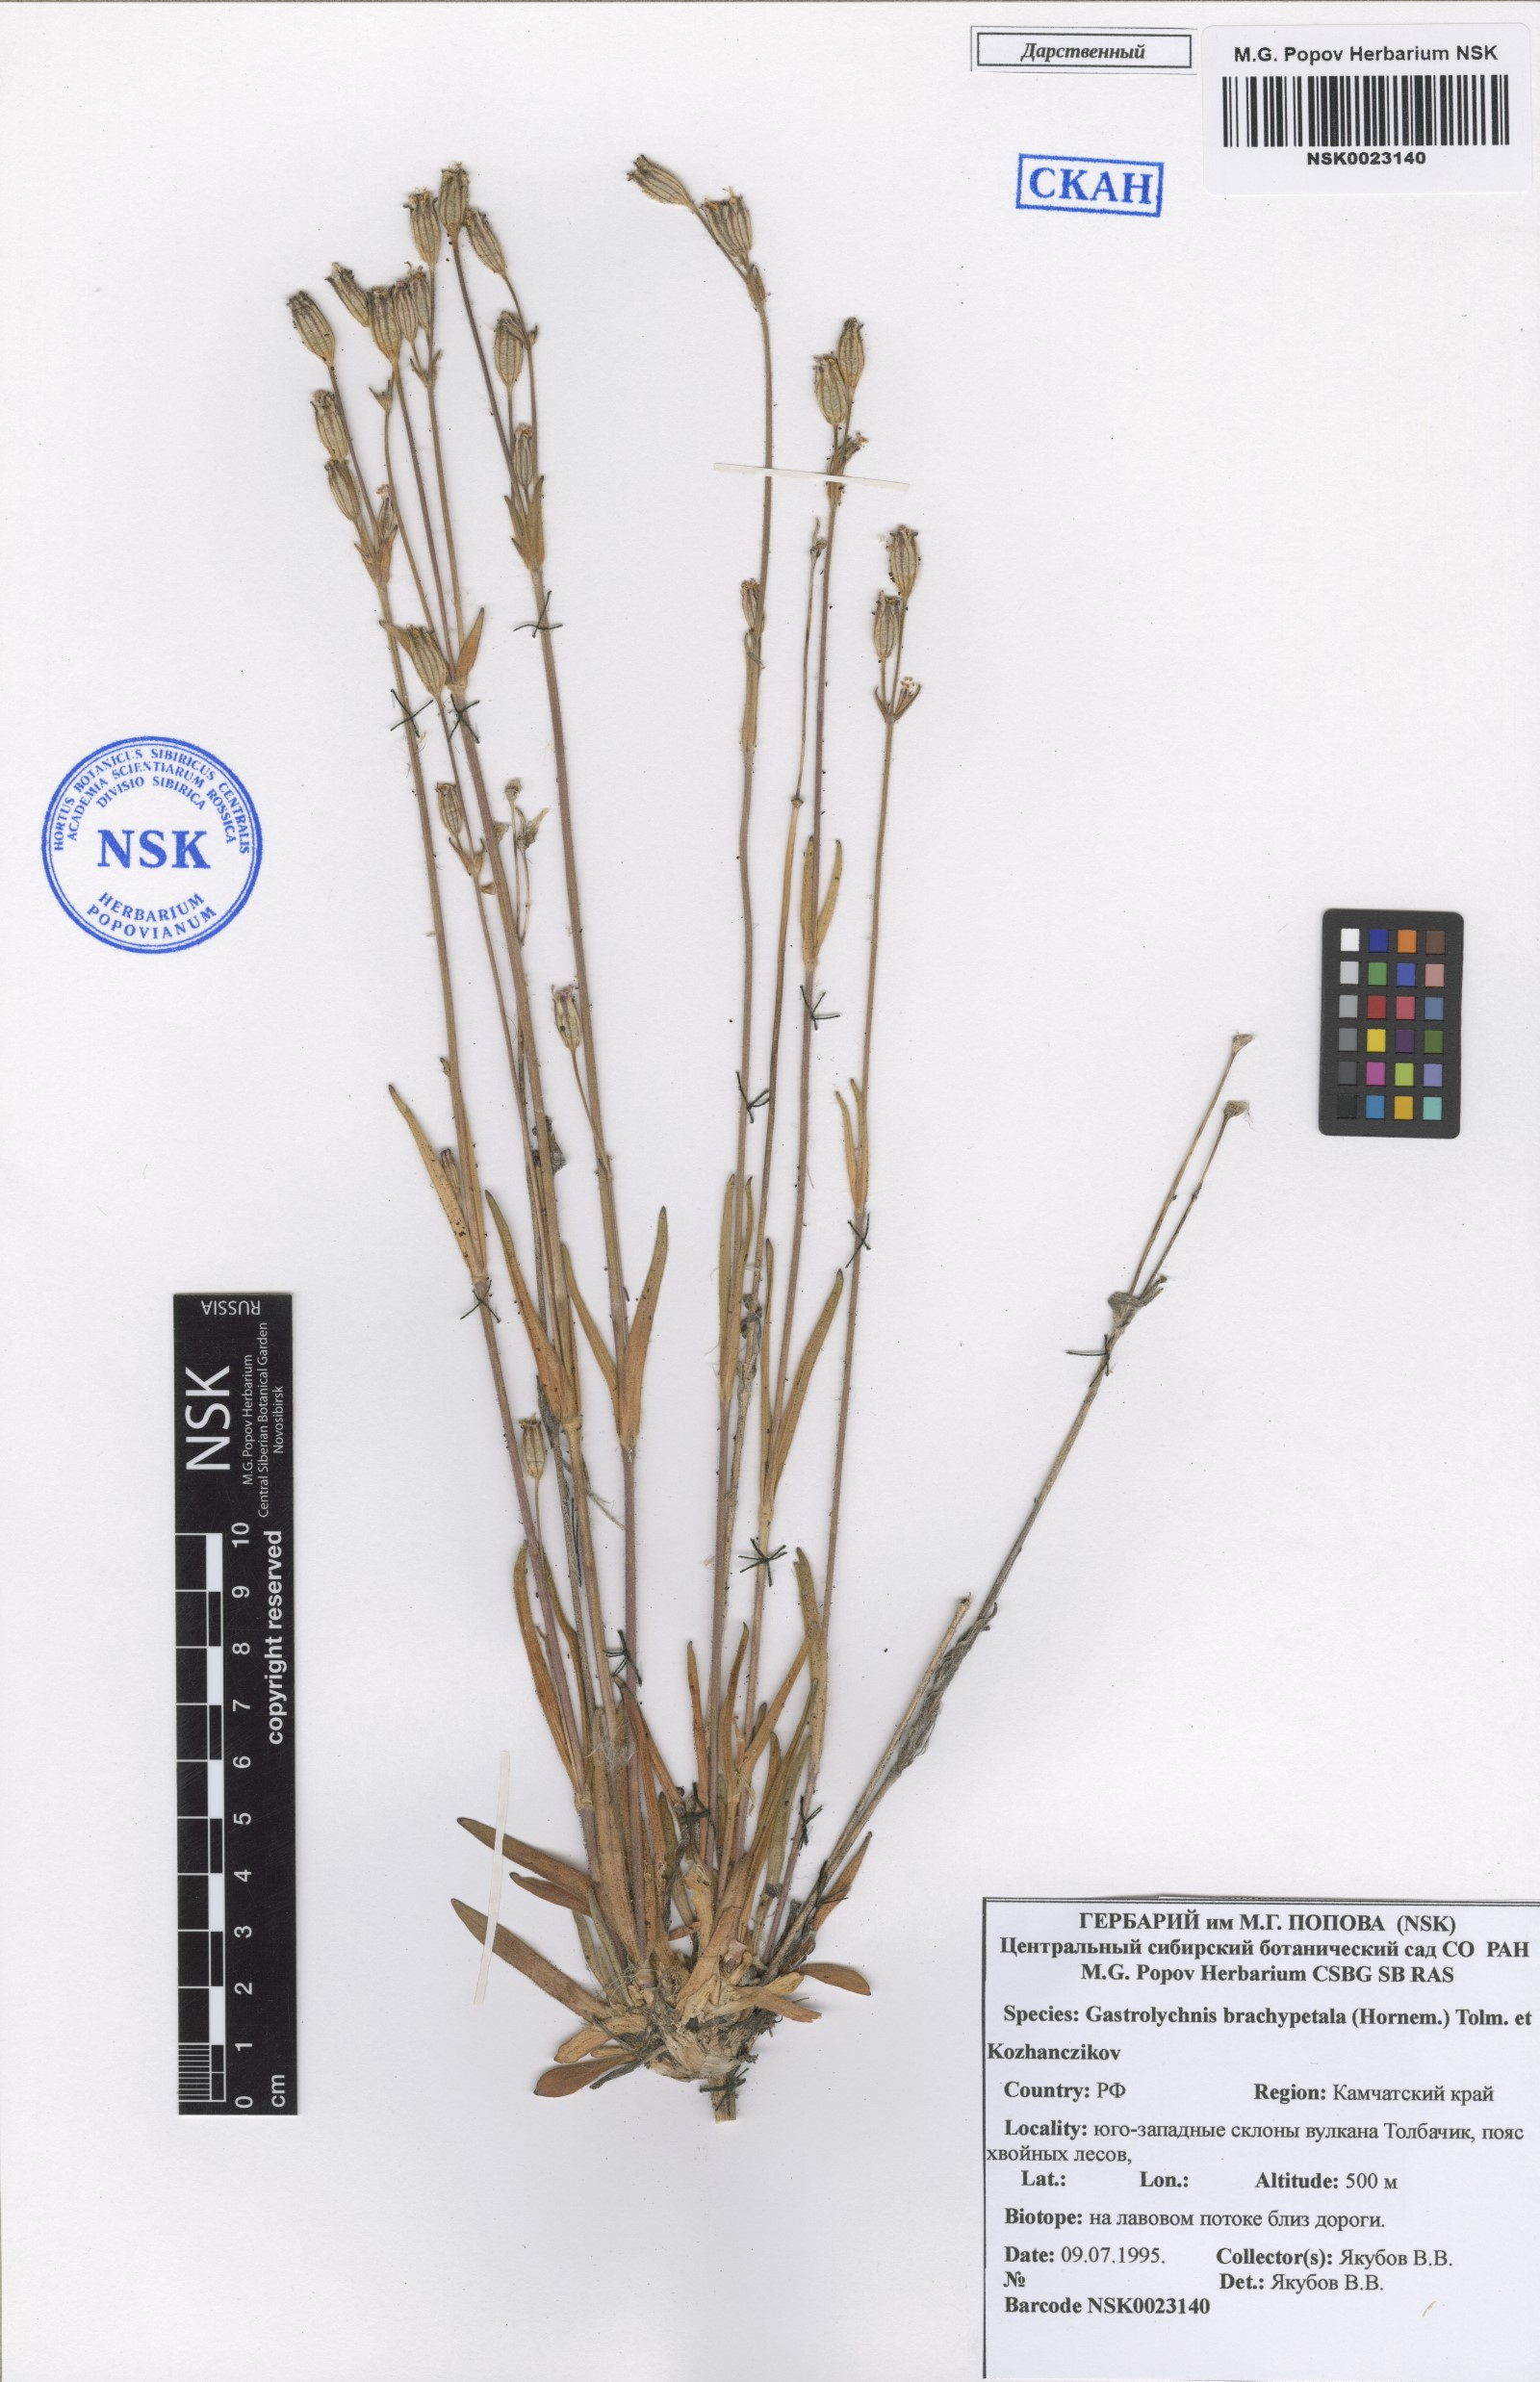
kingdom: Plantae
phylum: Tracheophyta
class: Magnoliopsida
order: Caryophyllales
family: Caryophyllaceae
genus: Silene
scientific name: Silene songarica
